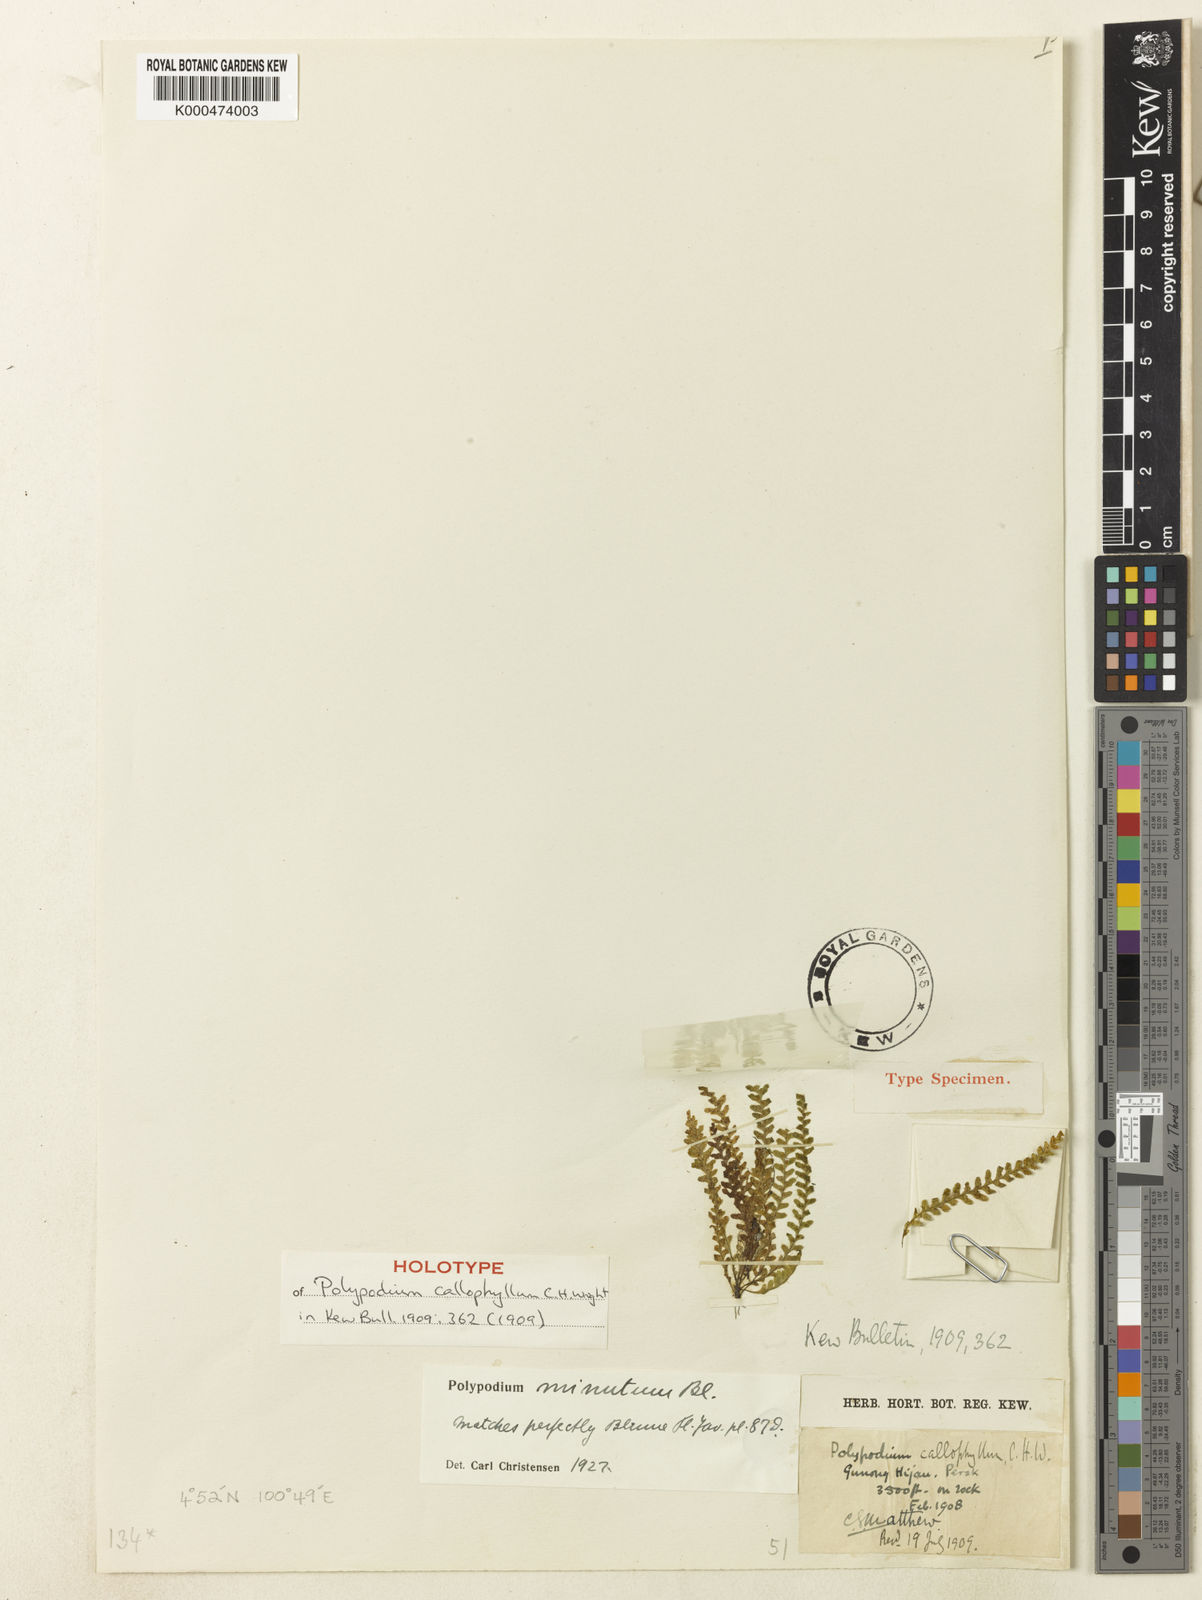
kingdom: Plantae
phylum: Tracheophyta
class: Polypodiopsida
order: Polypodiales
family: Polypodiaceae
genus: Tomophyllum
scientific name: Tomophyllum minutum
